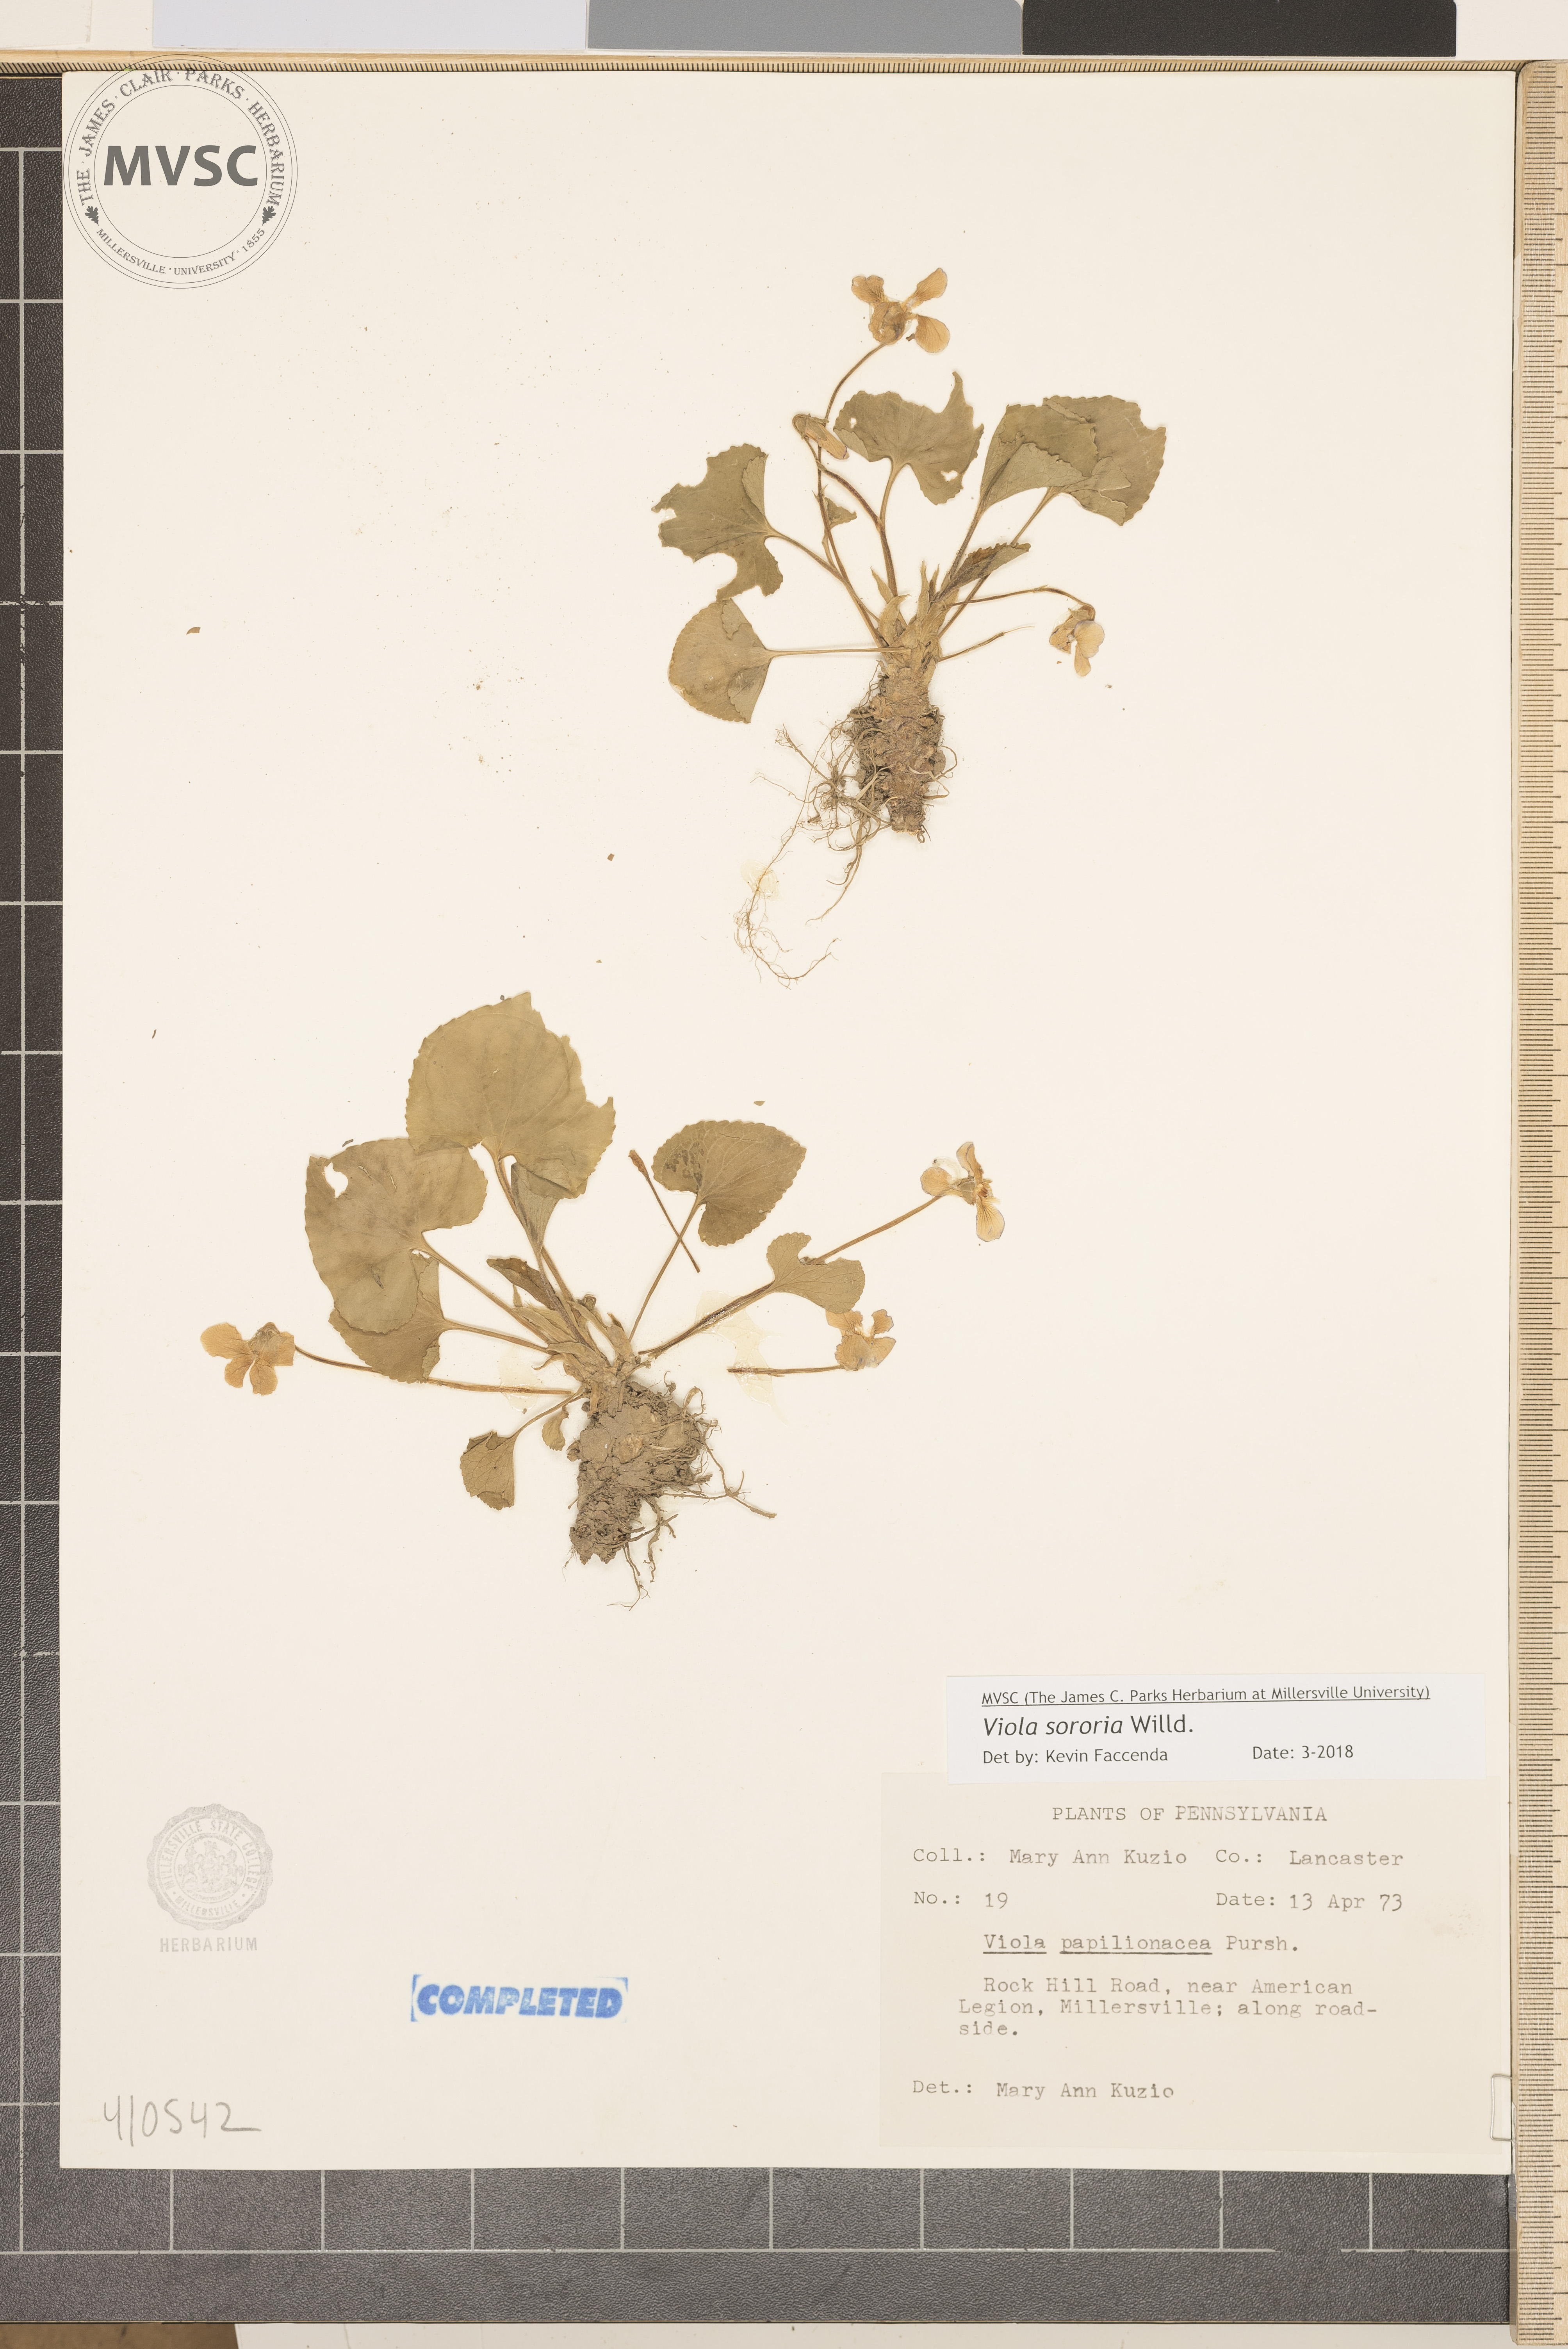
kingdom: Plantae
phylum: Tracheophyta
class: Magnoliopsida
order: Malpighiales
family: Violaceae
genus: Viola
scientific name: Viola sororia
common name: Dooryard violet
